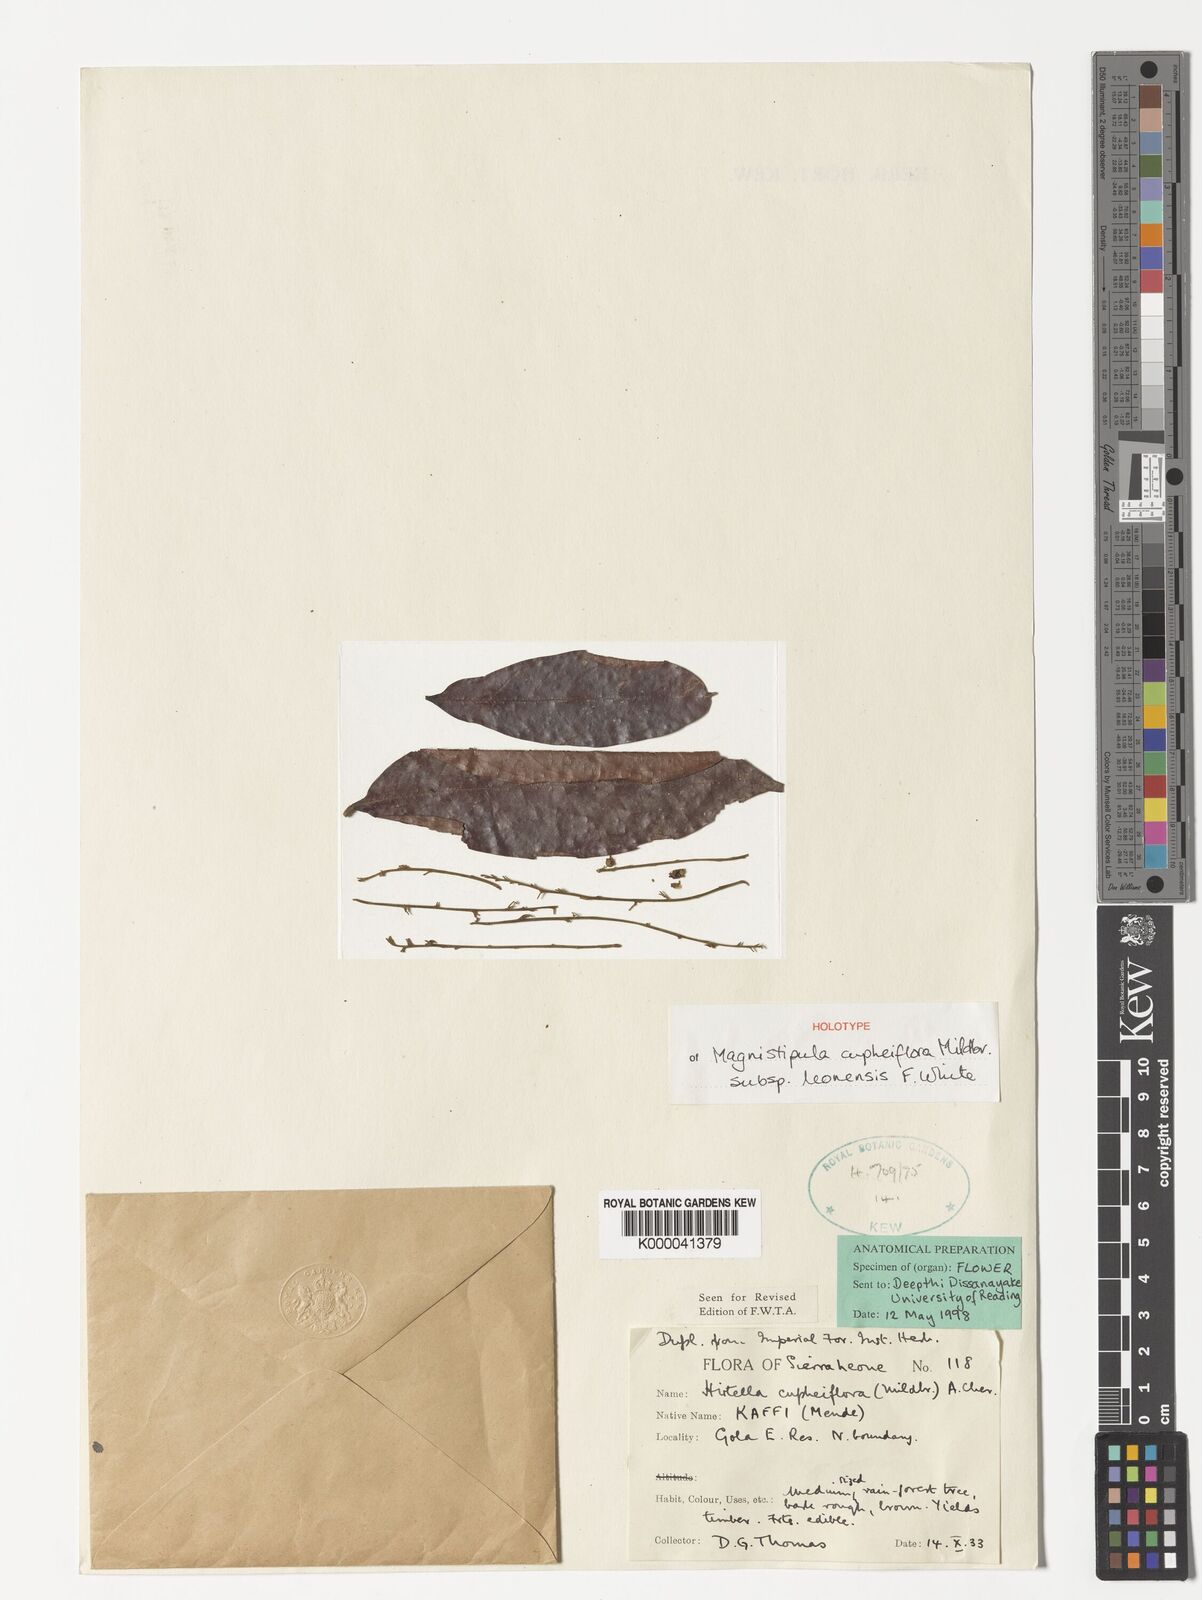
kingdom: Plantae
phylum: Tracheophyta
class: Magnoliopsida
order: Malpighiales
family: Chrysobalanaceae
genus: Magnistipula
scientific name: Magnistipula cupheiflora
